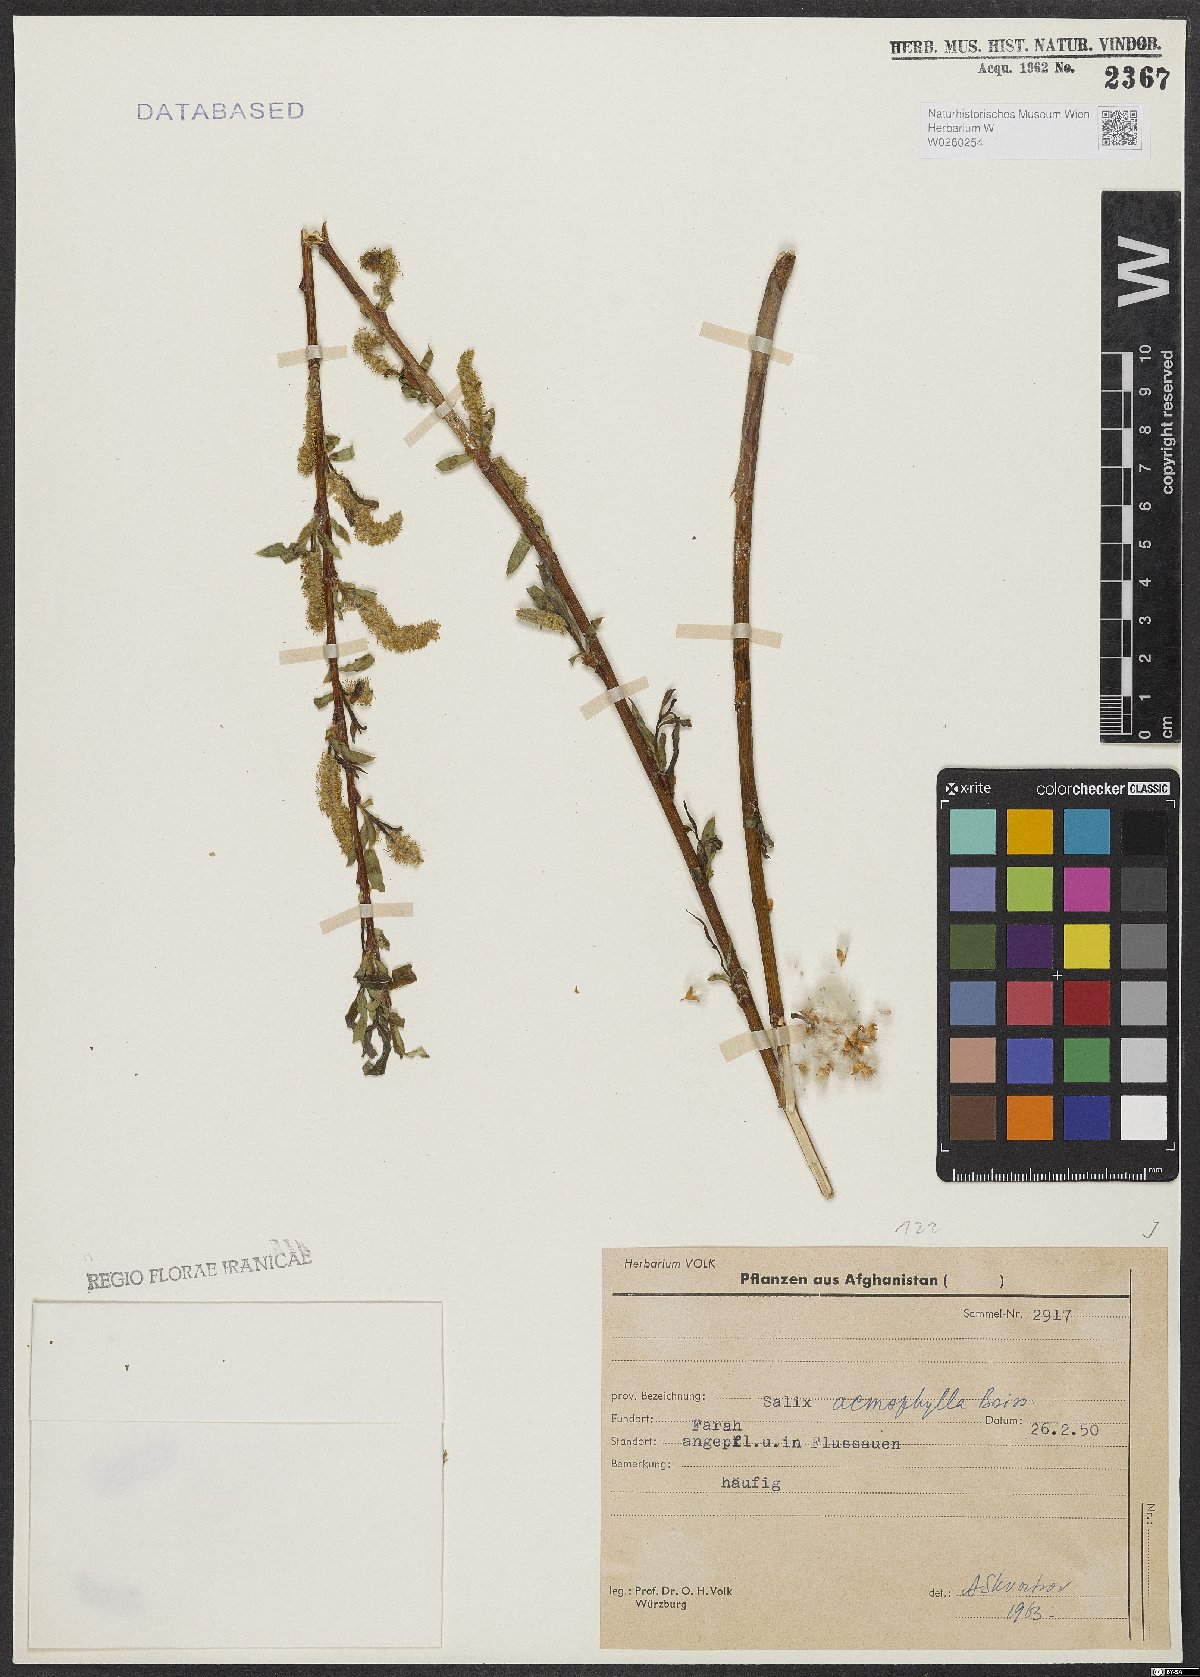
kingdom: Plantae
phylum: Tracheophyta
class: Magnoliopsida
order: Malpighiales
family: Salicaceae
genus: Salix
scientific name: Salix acmophylla
